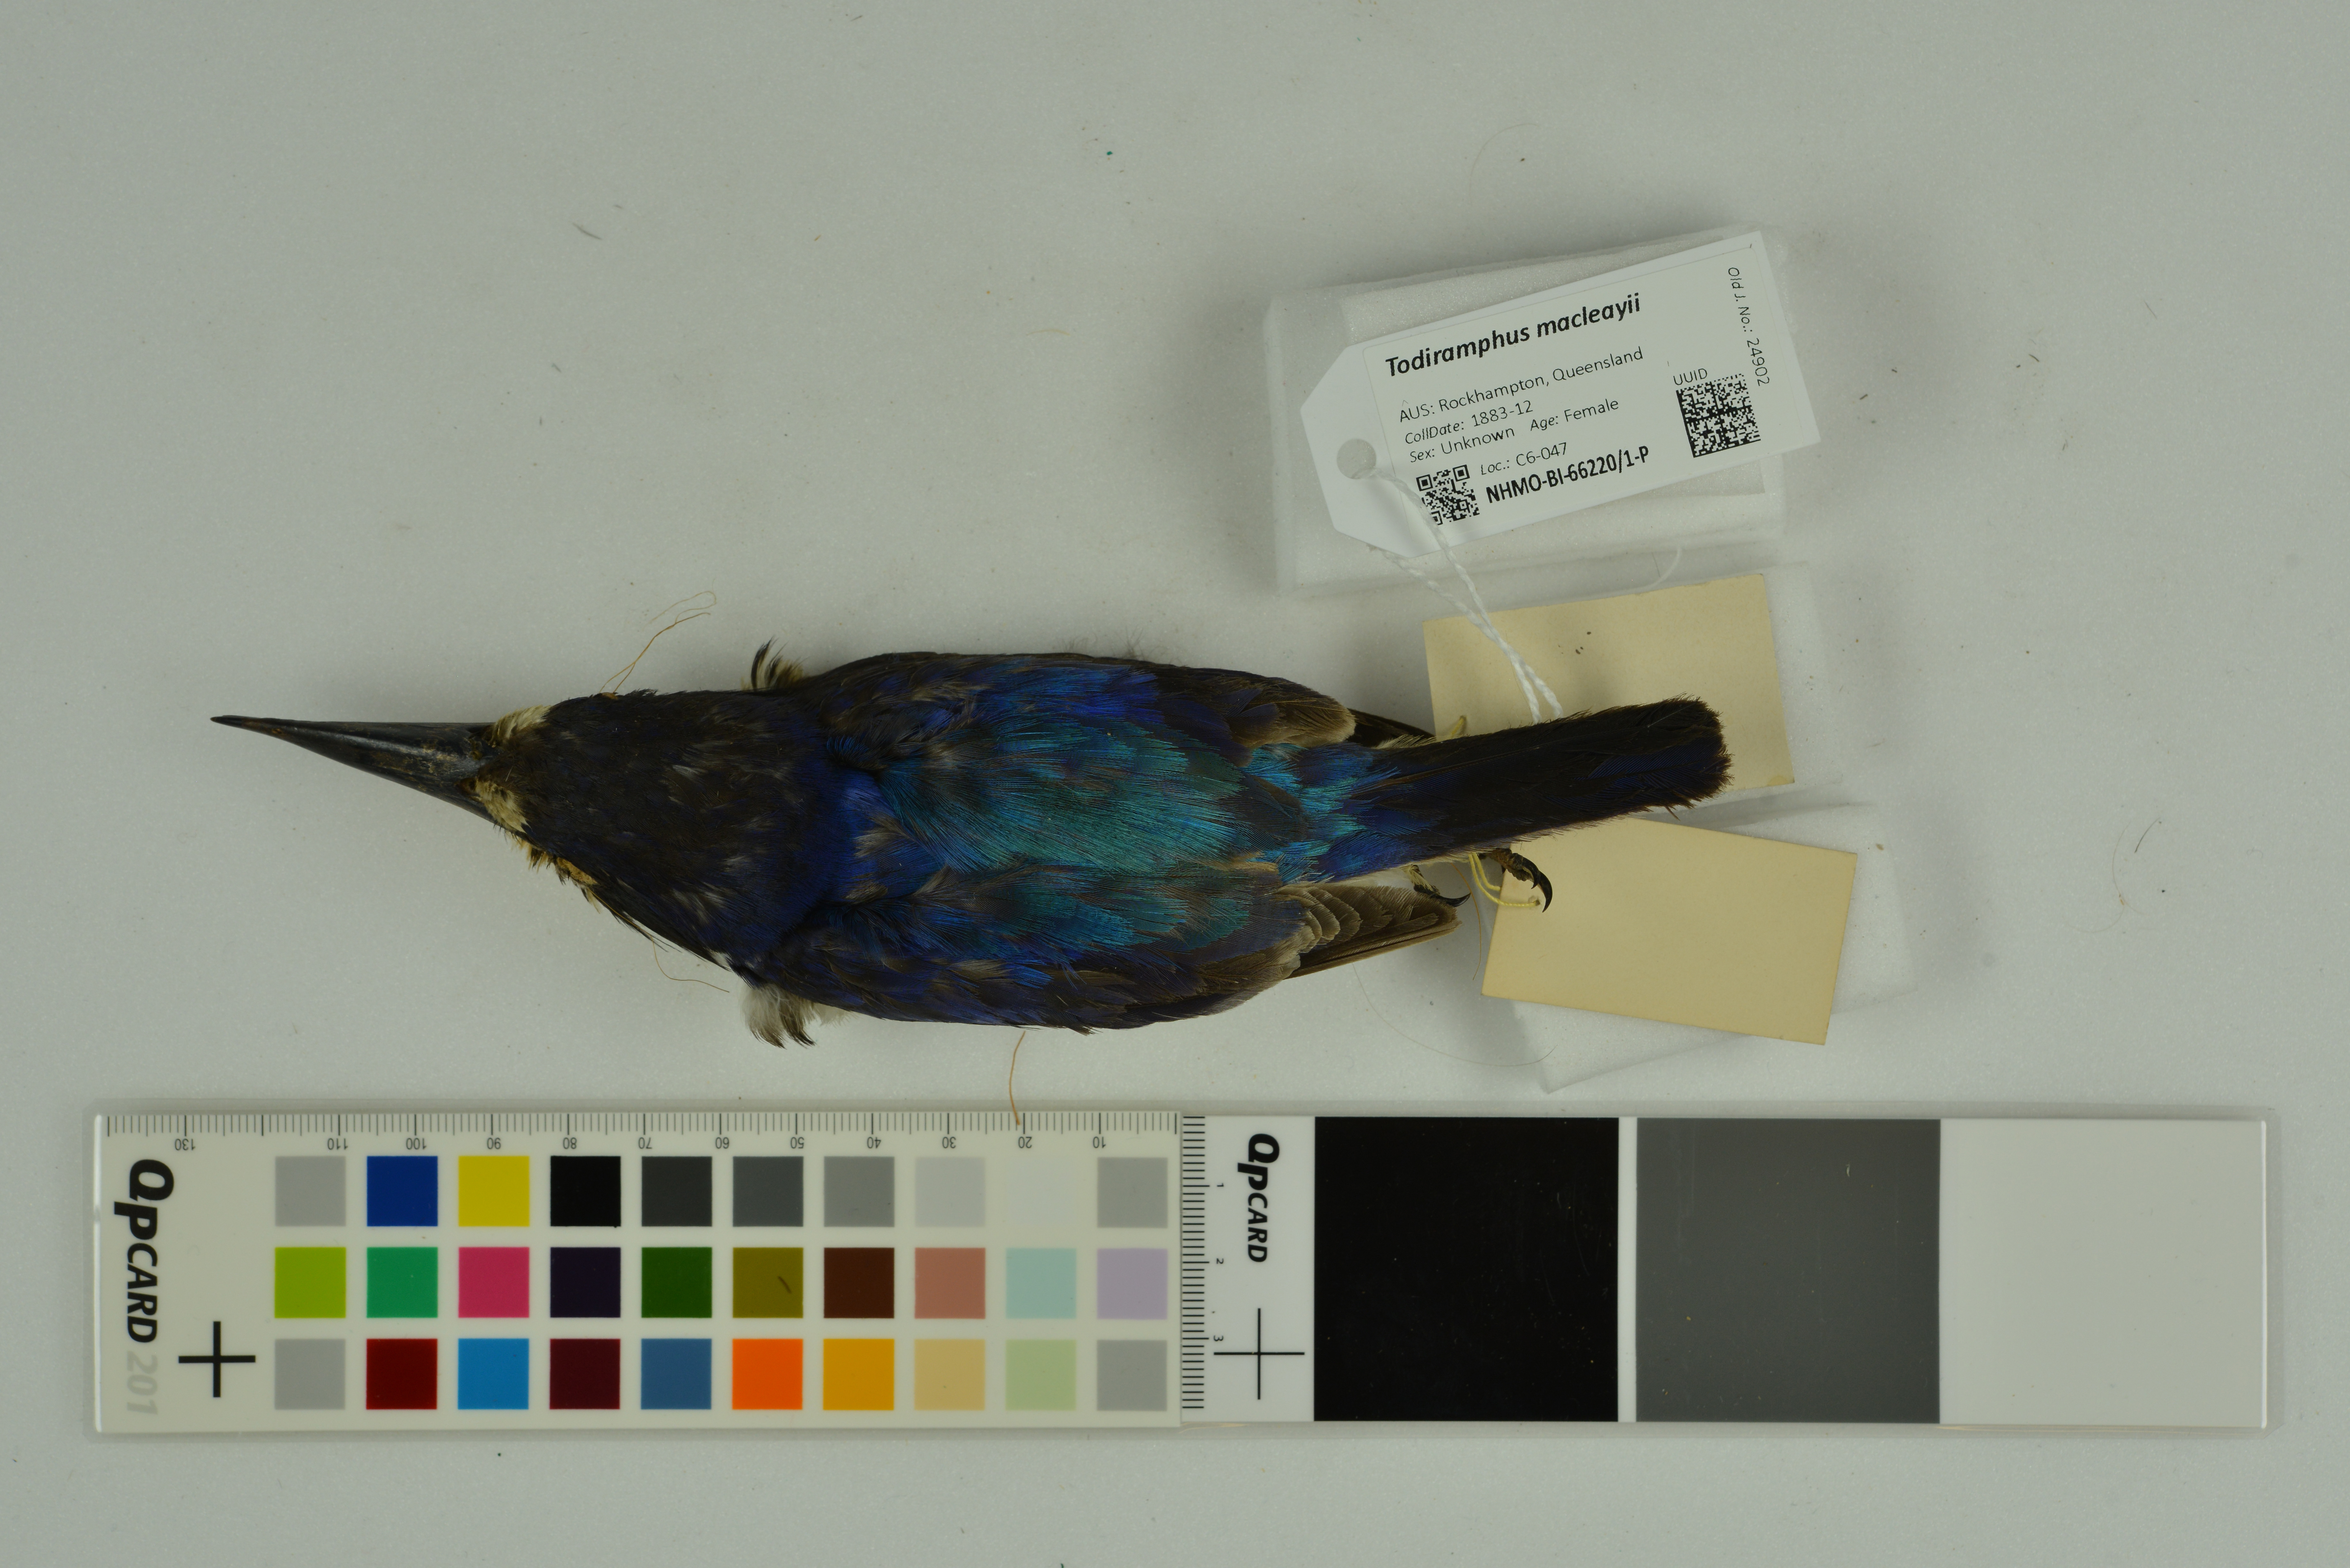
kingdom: Animalia
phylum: Chordata
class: Aves
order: Coraciiformes
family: Alcedinidae
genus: Todiramphus
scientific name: Todiramphus macleayii
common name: Forest kingfisher
